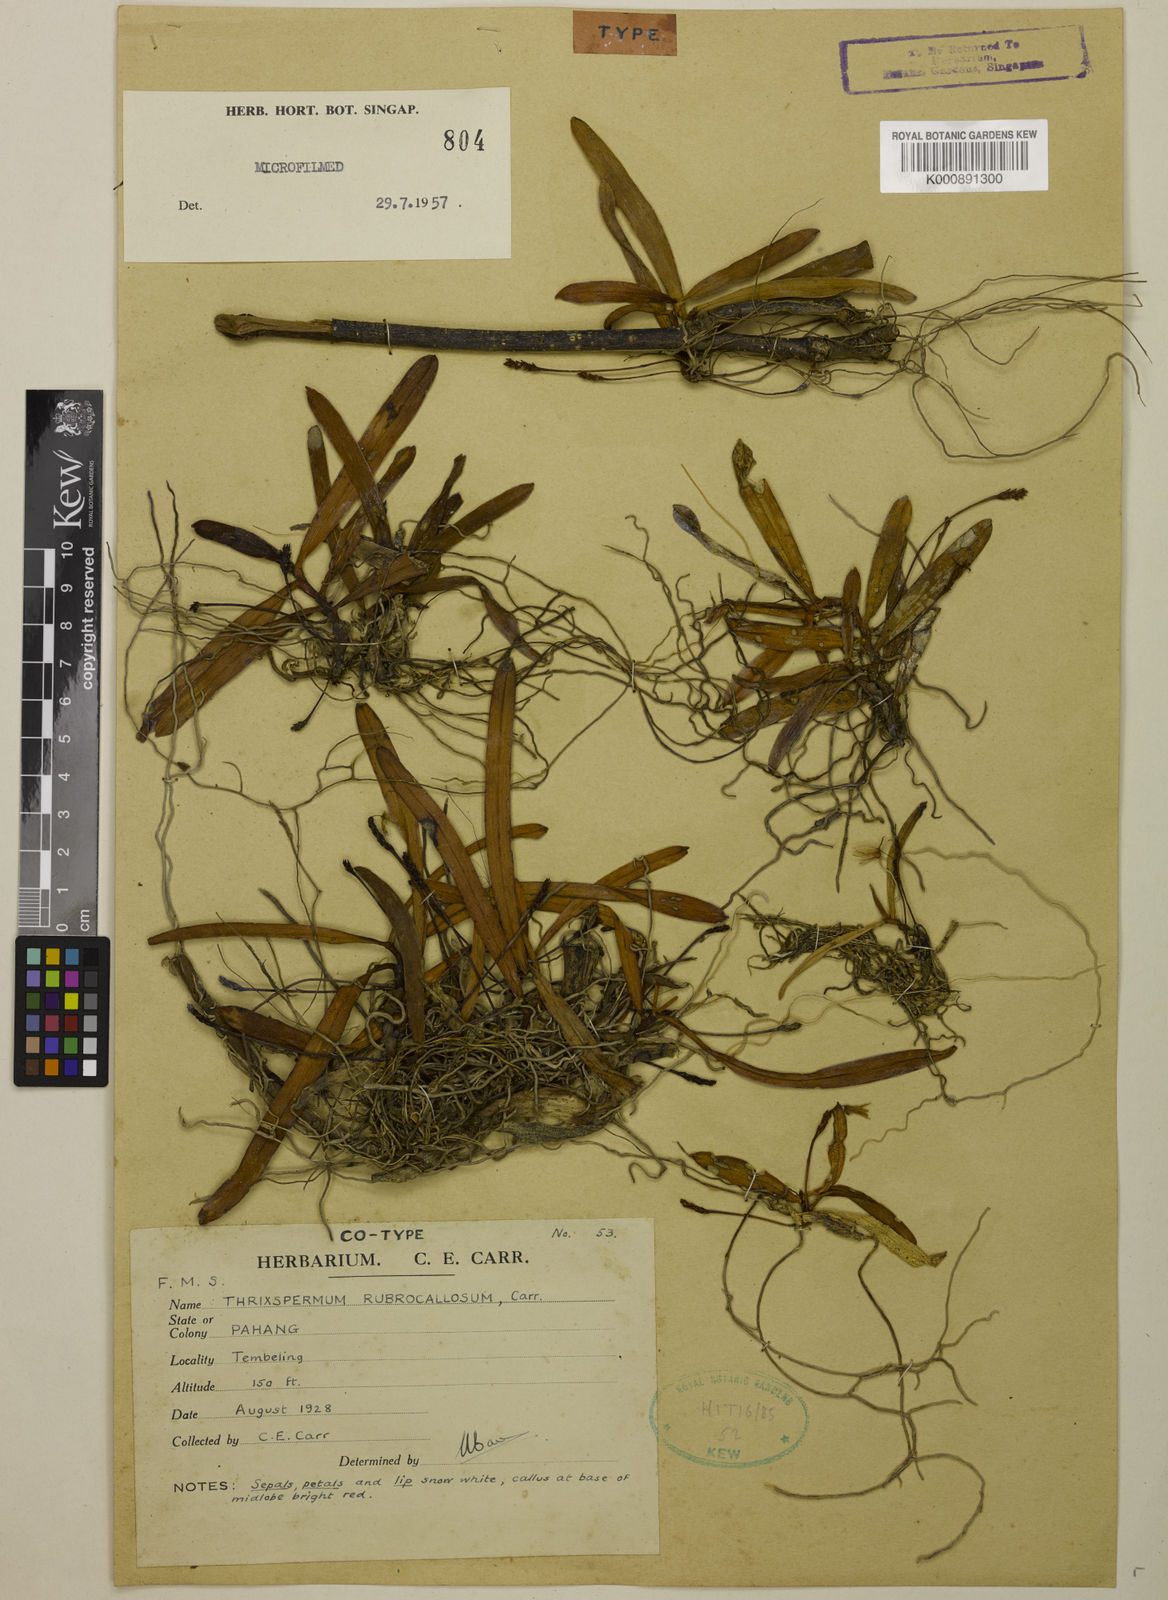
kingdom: Plantae
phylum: Tracheophyta
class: Liliopsida
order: Asparagales
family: Orchidaceae
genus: Thrixspermum
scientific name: Thrixspermum clavatum
